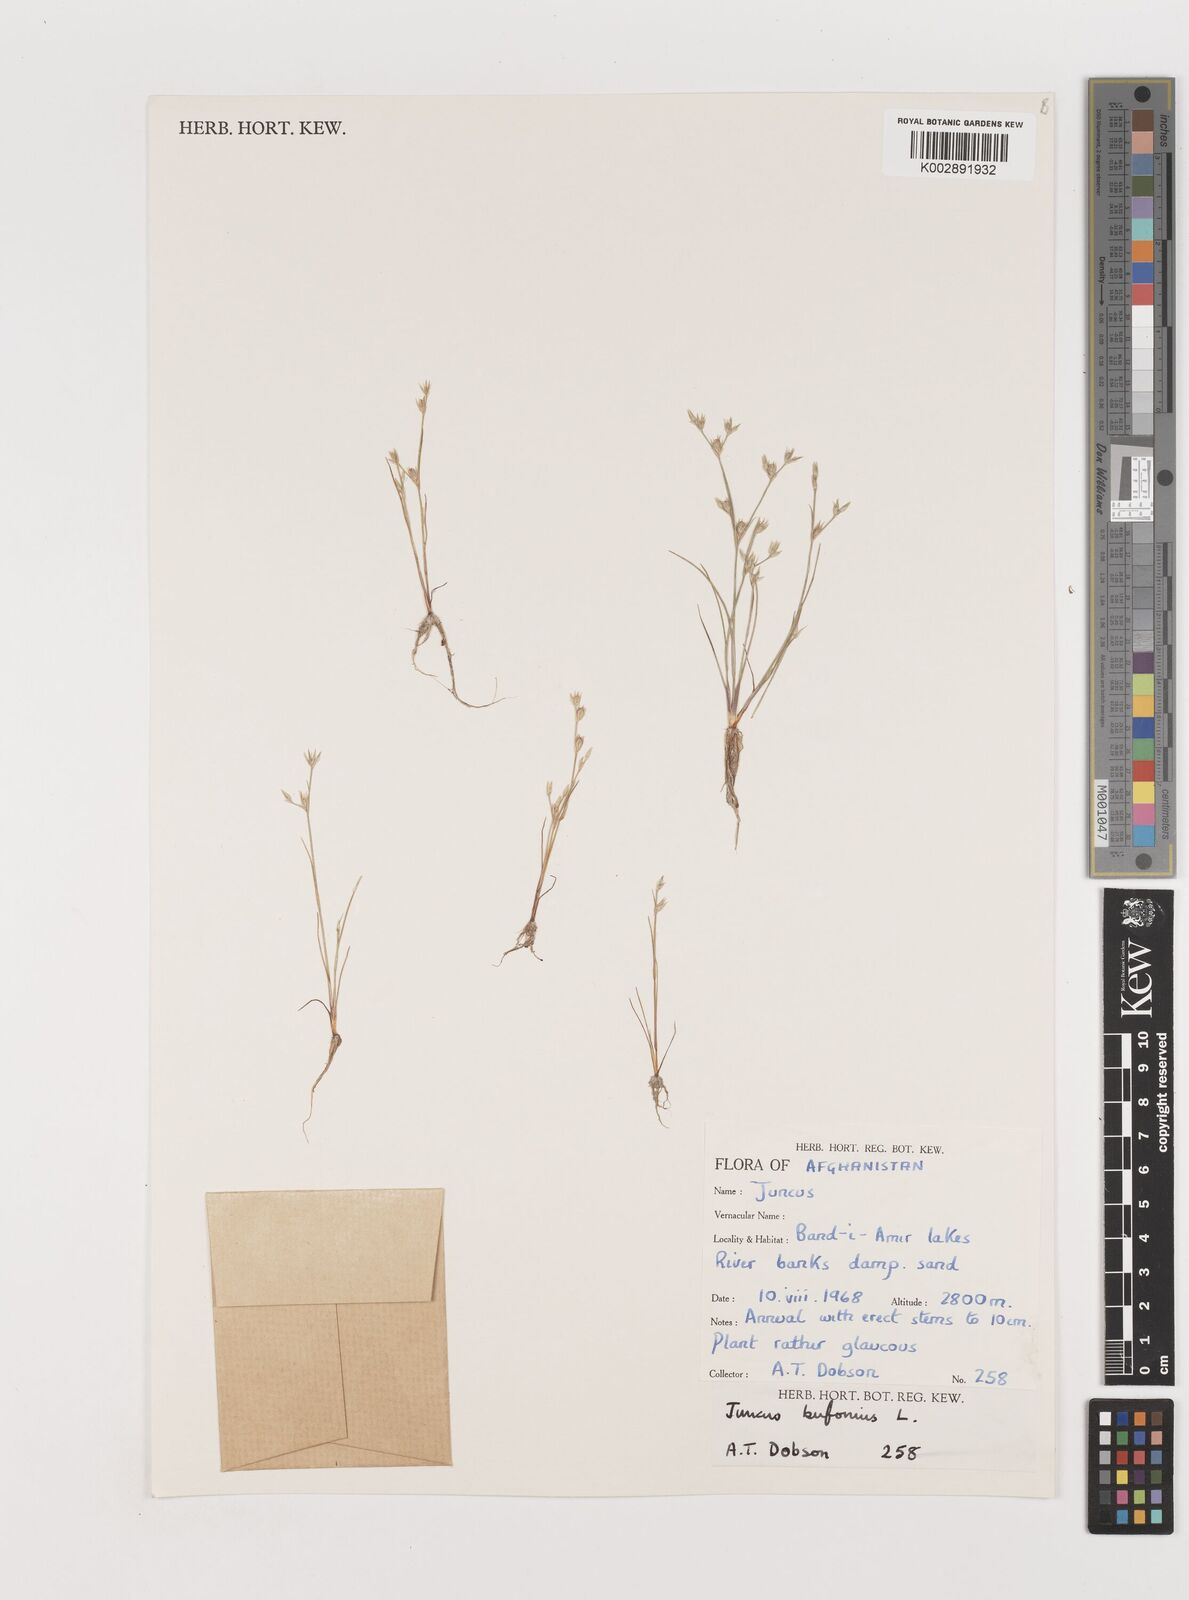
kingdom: Plantae
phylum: Tracheophyta
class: Liliopsida
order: Poales
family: Juncaceae
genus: Juncus
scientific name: Juncus
